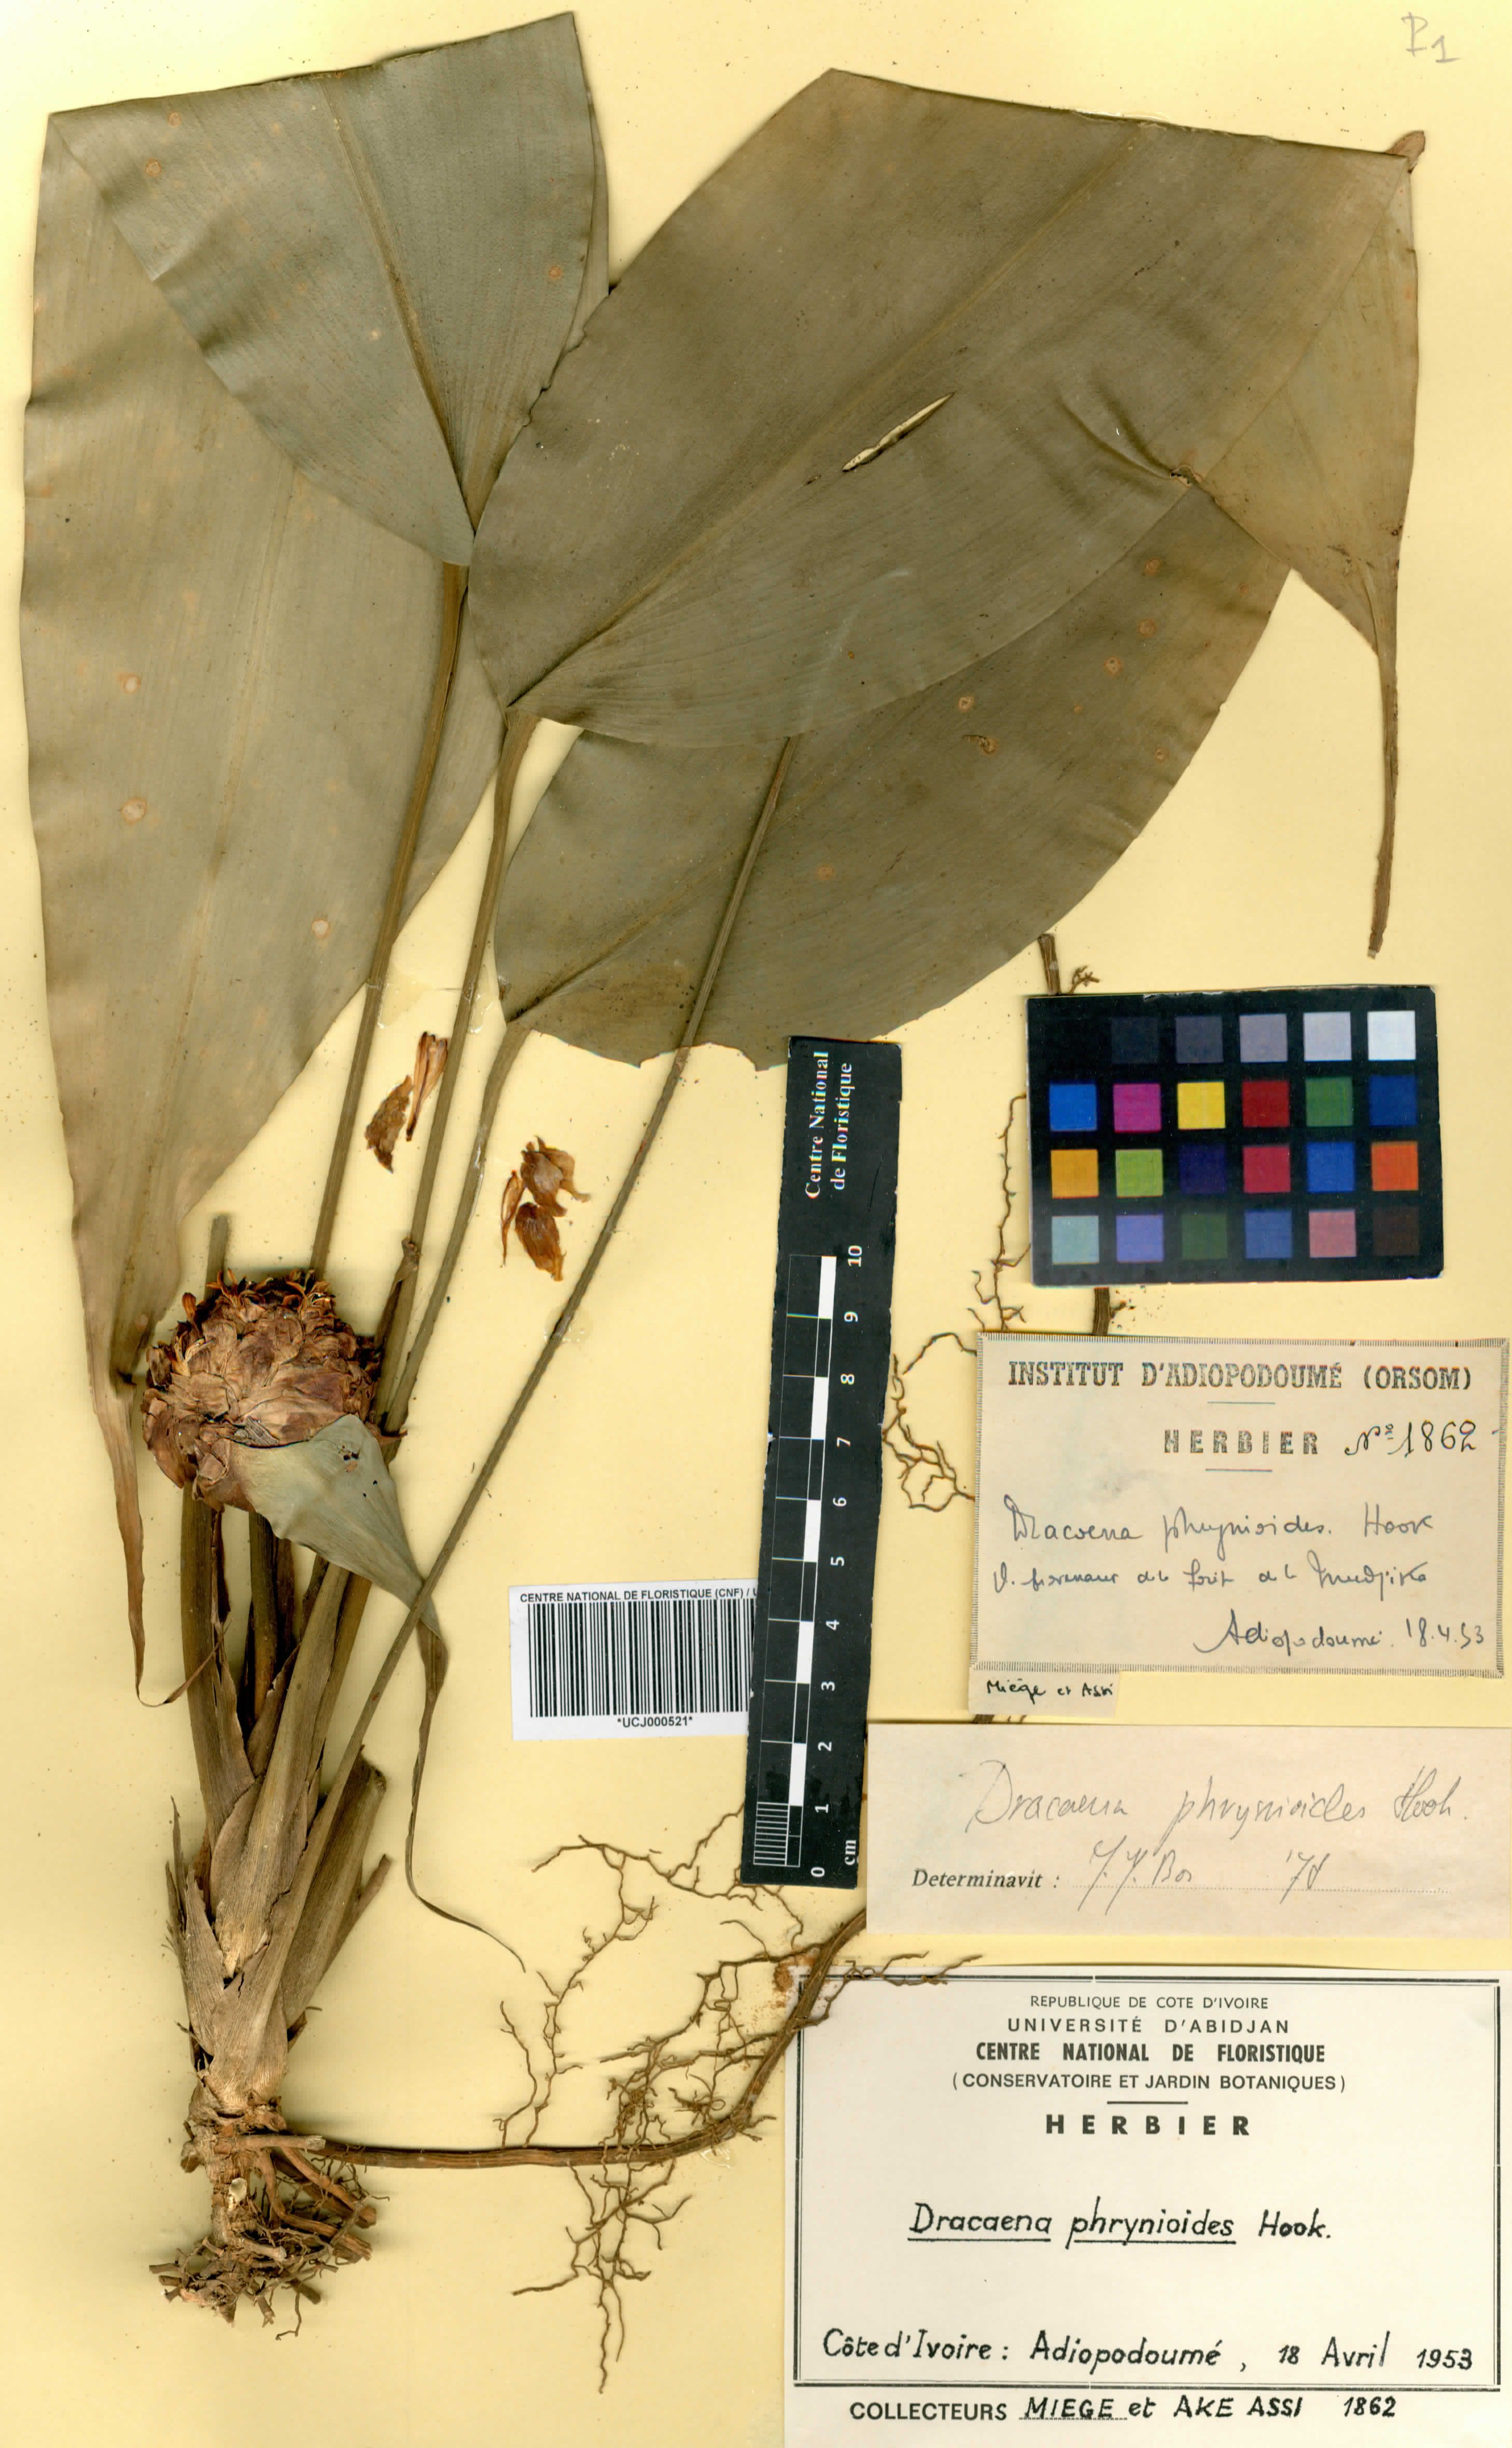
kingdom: Plantae
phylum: Tracheophyta
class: Liliopsida
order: Asparagales
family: Asparagaceae
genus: Dracaena
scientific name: Dracaena phrynioides
